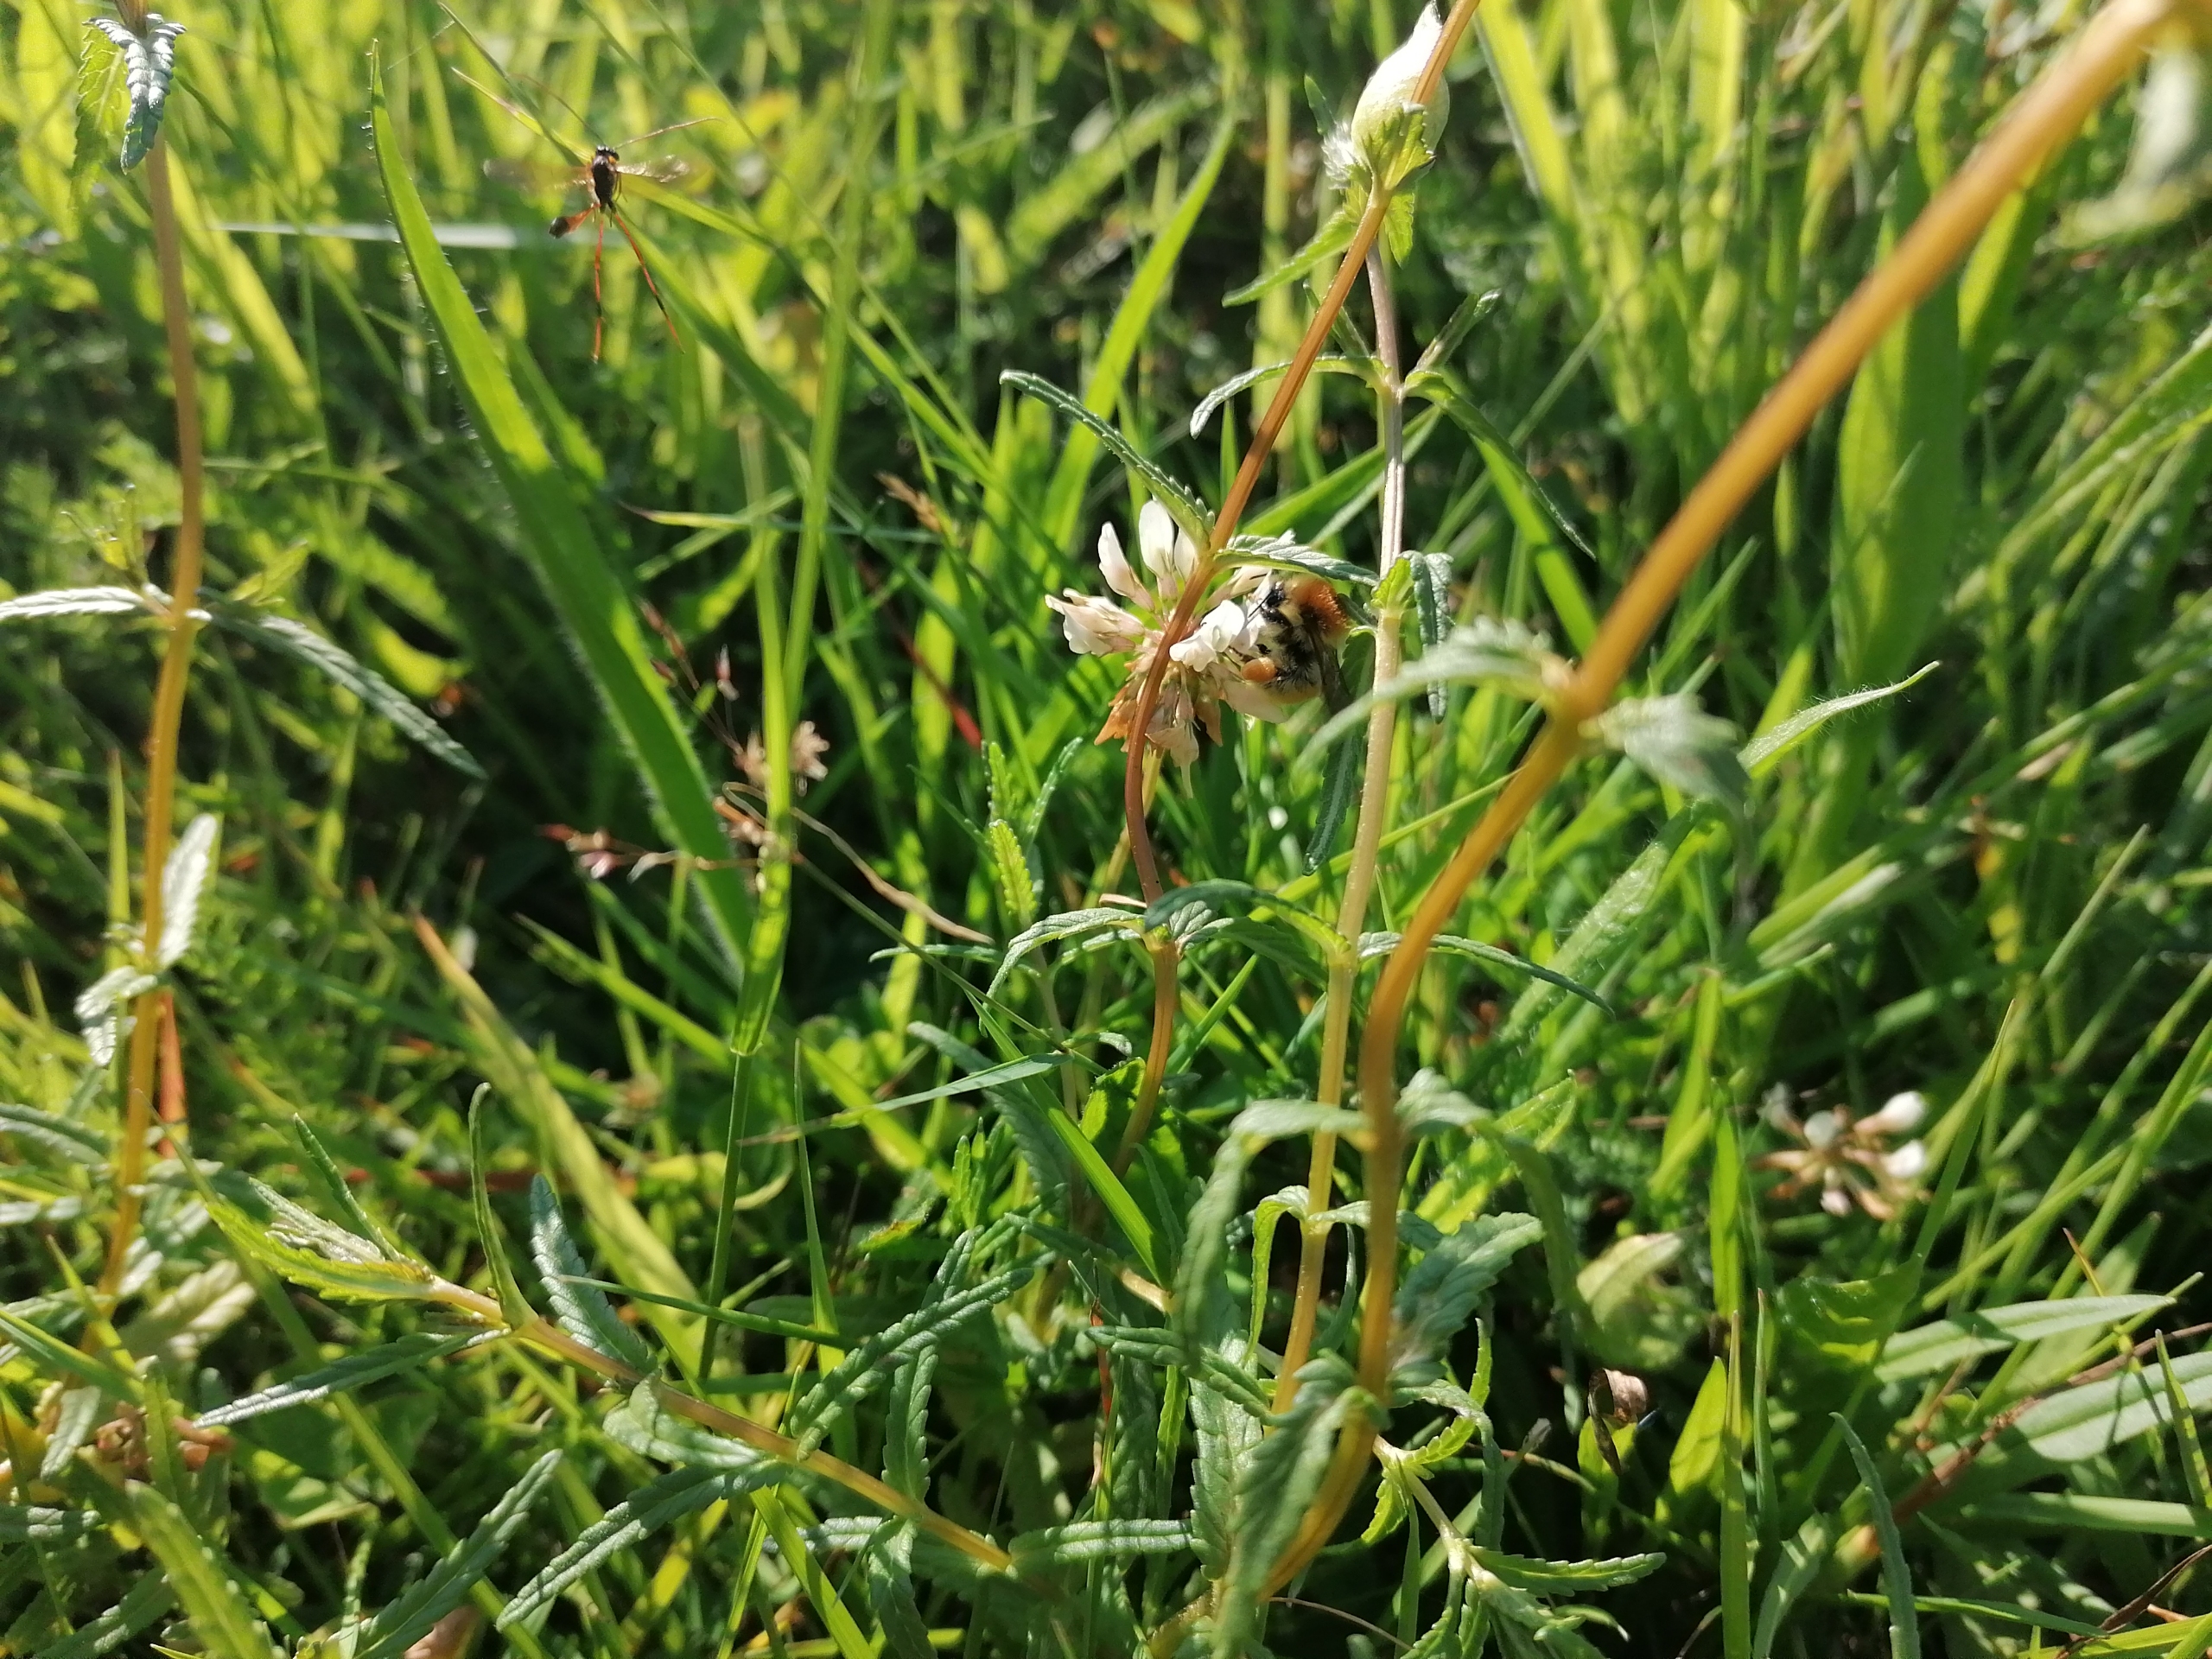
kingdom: Animalia
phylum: Arthropoda
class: Insecta
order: Hymenoptera
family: Apidae
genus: Bombus
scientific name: Bombus muscorum
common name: Moshumle
